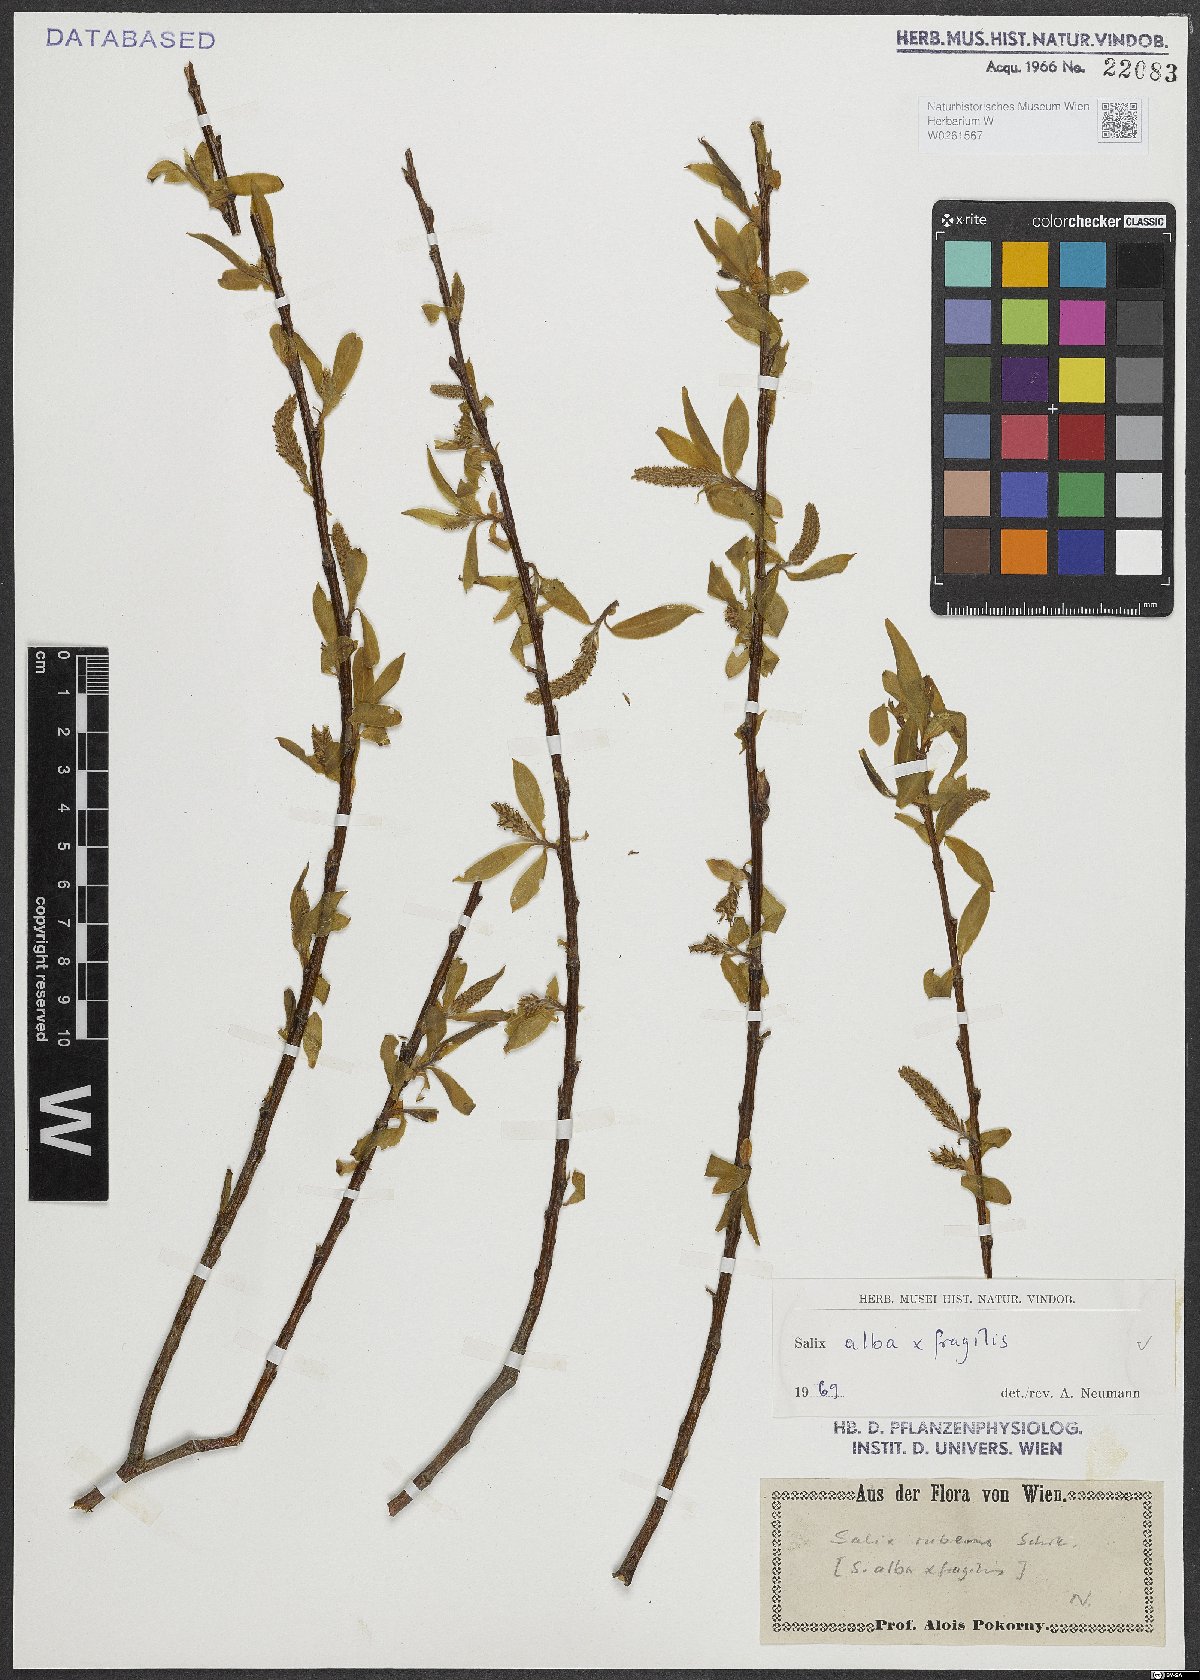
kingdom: Plantae
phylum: Tracheophyta
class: Magnoliopsida
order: Malpighiales
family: Salicaceae
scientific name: Salicaceae
